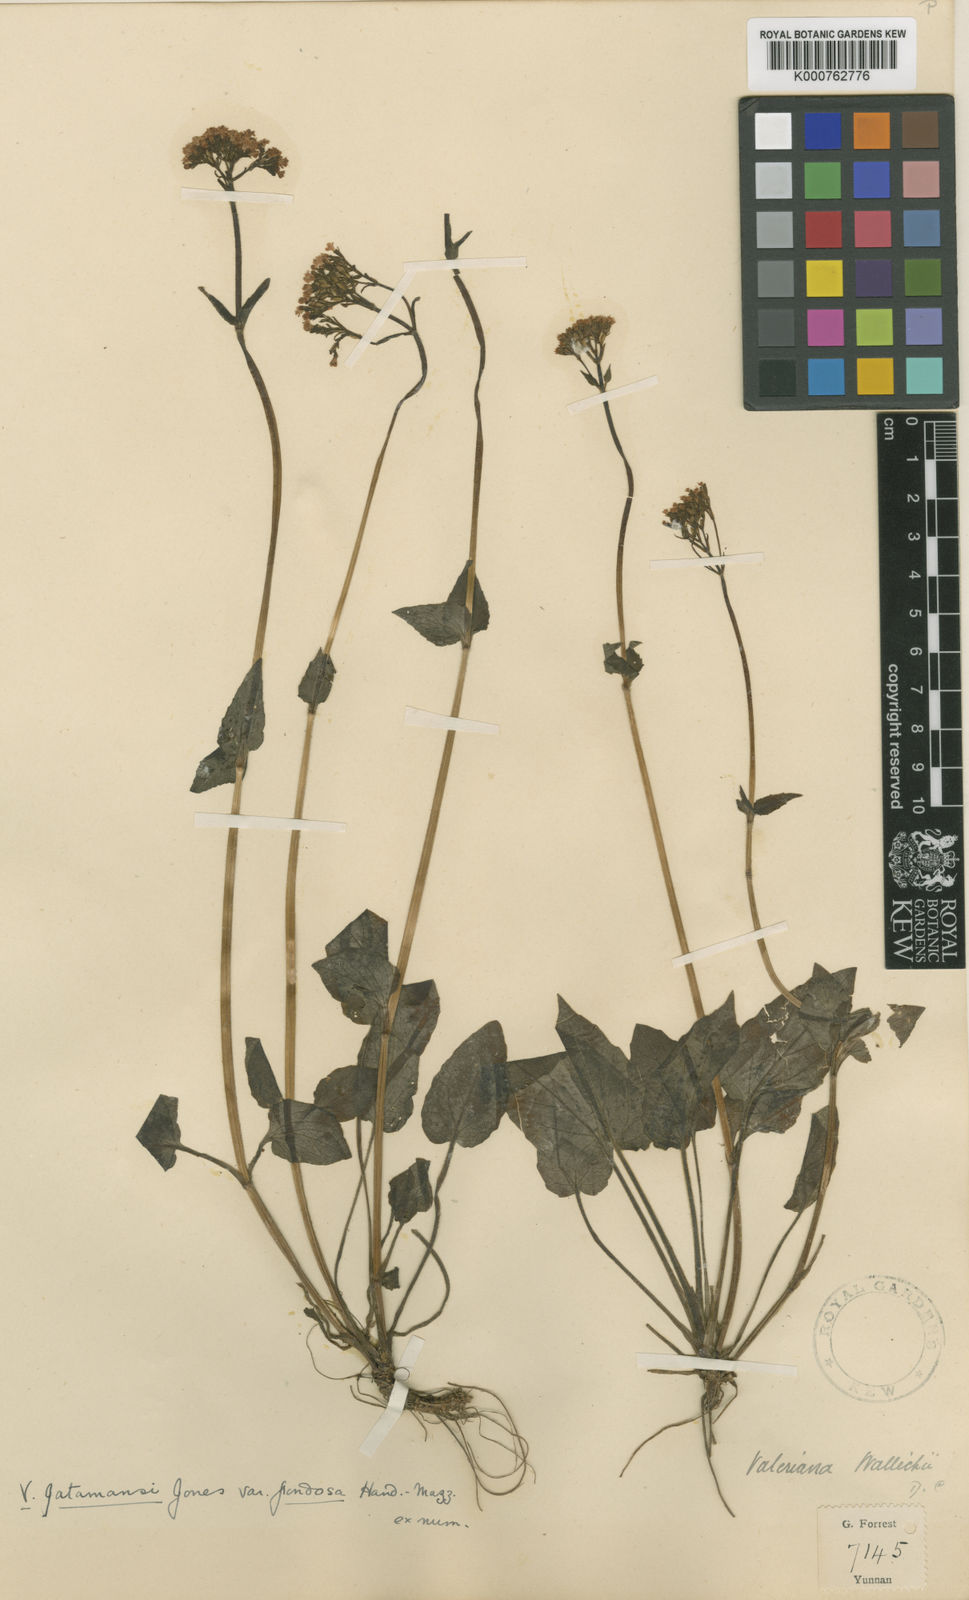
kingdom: Plantae
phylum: Tracheophyta
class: Magnoliopsida
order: Dipsacales
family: Caprifoliaceae
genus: Valeriana
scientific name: Valeriana
